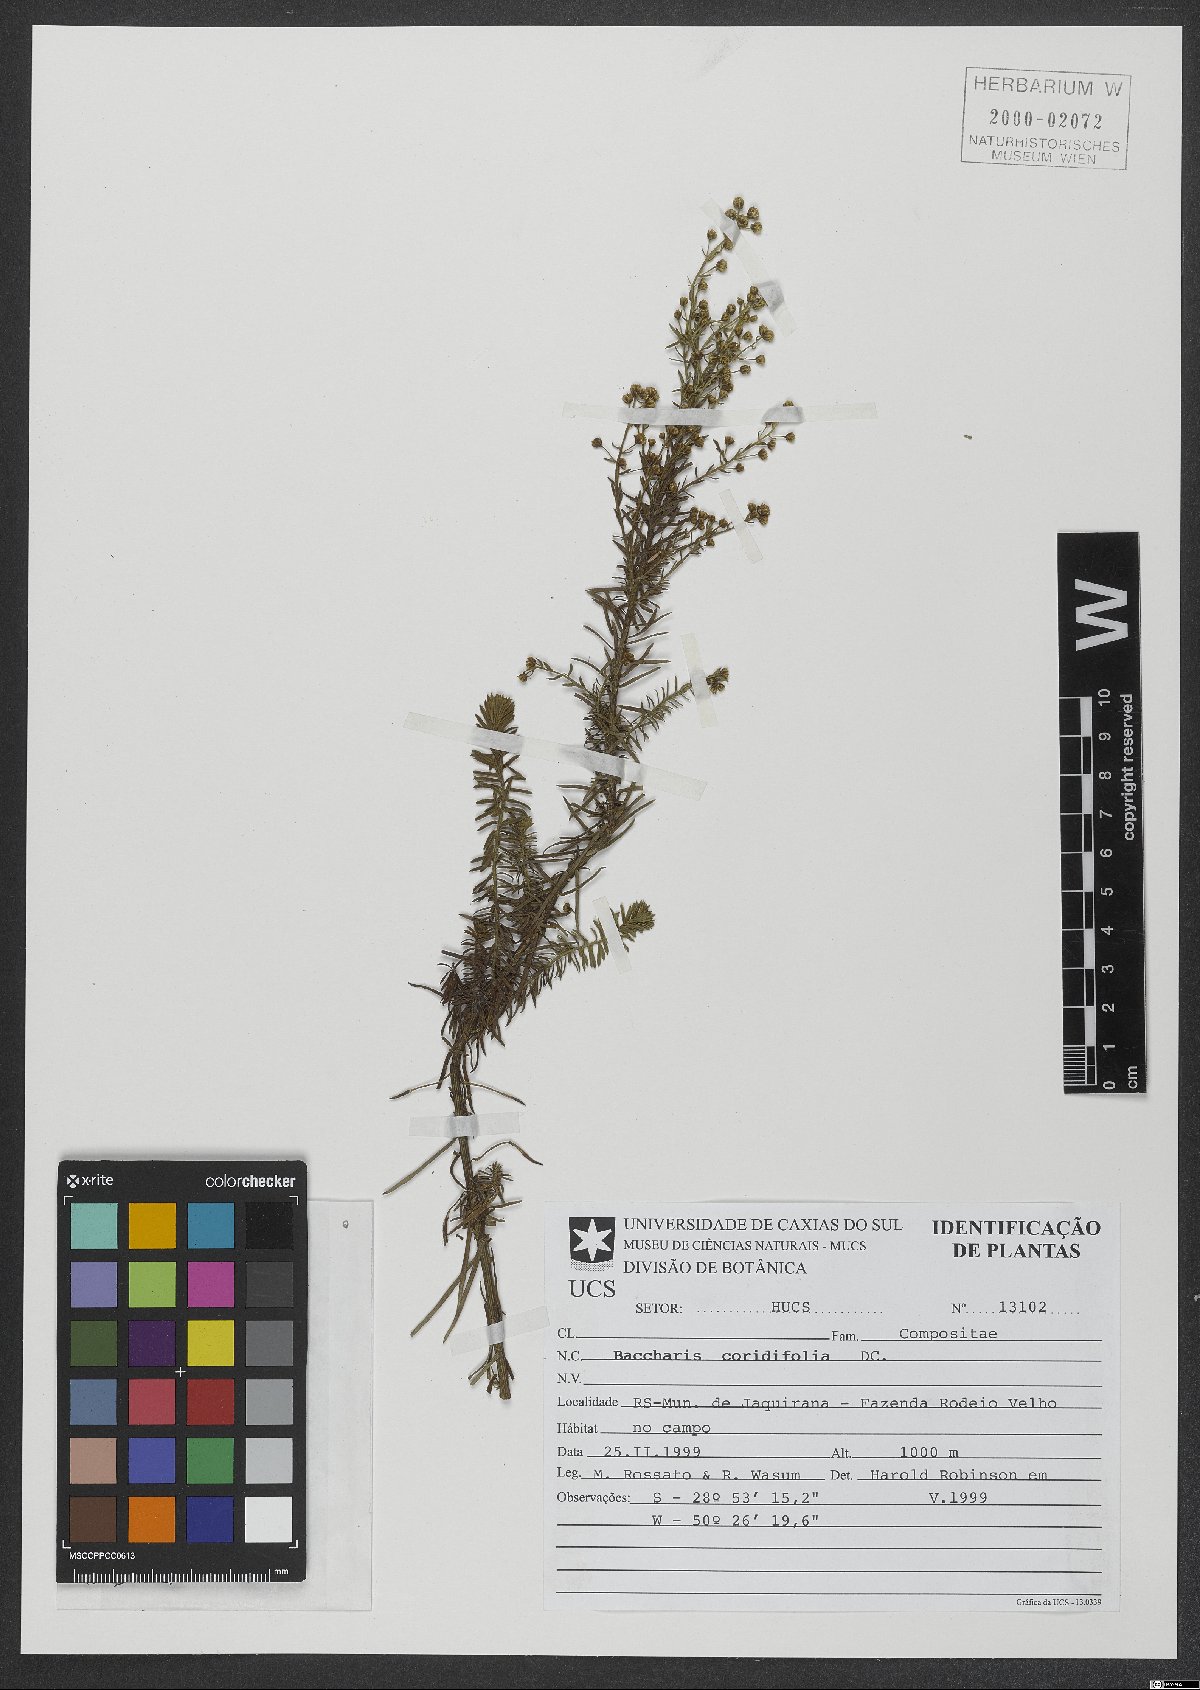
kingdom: Plantae
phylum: Tracheophyta
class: Magnoliopsida
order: Asterales
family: Asteraceae
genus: Baccharis
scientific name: Baccharis coridifolia
